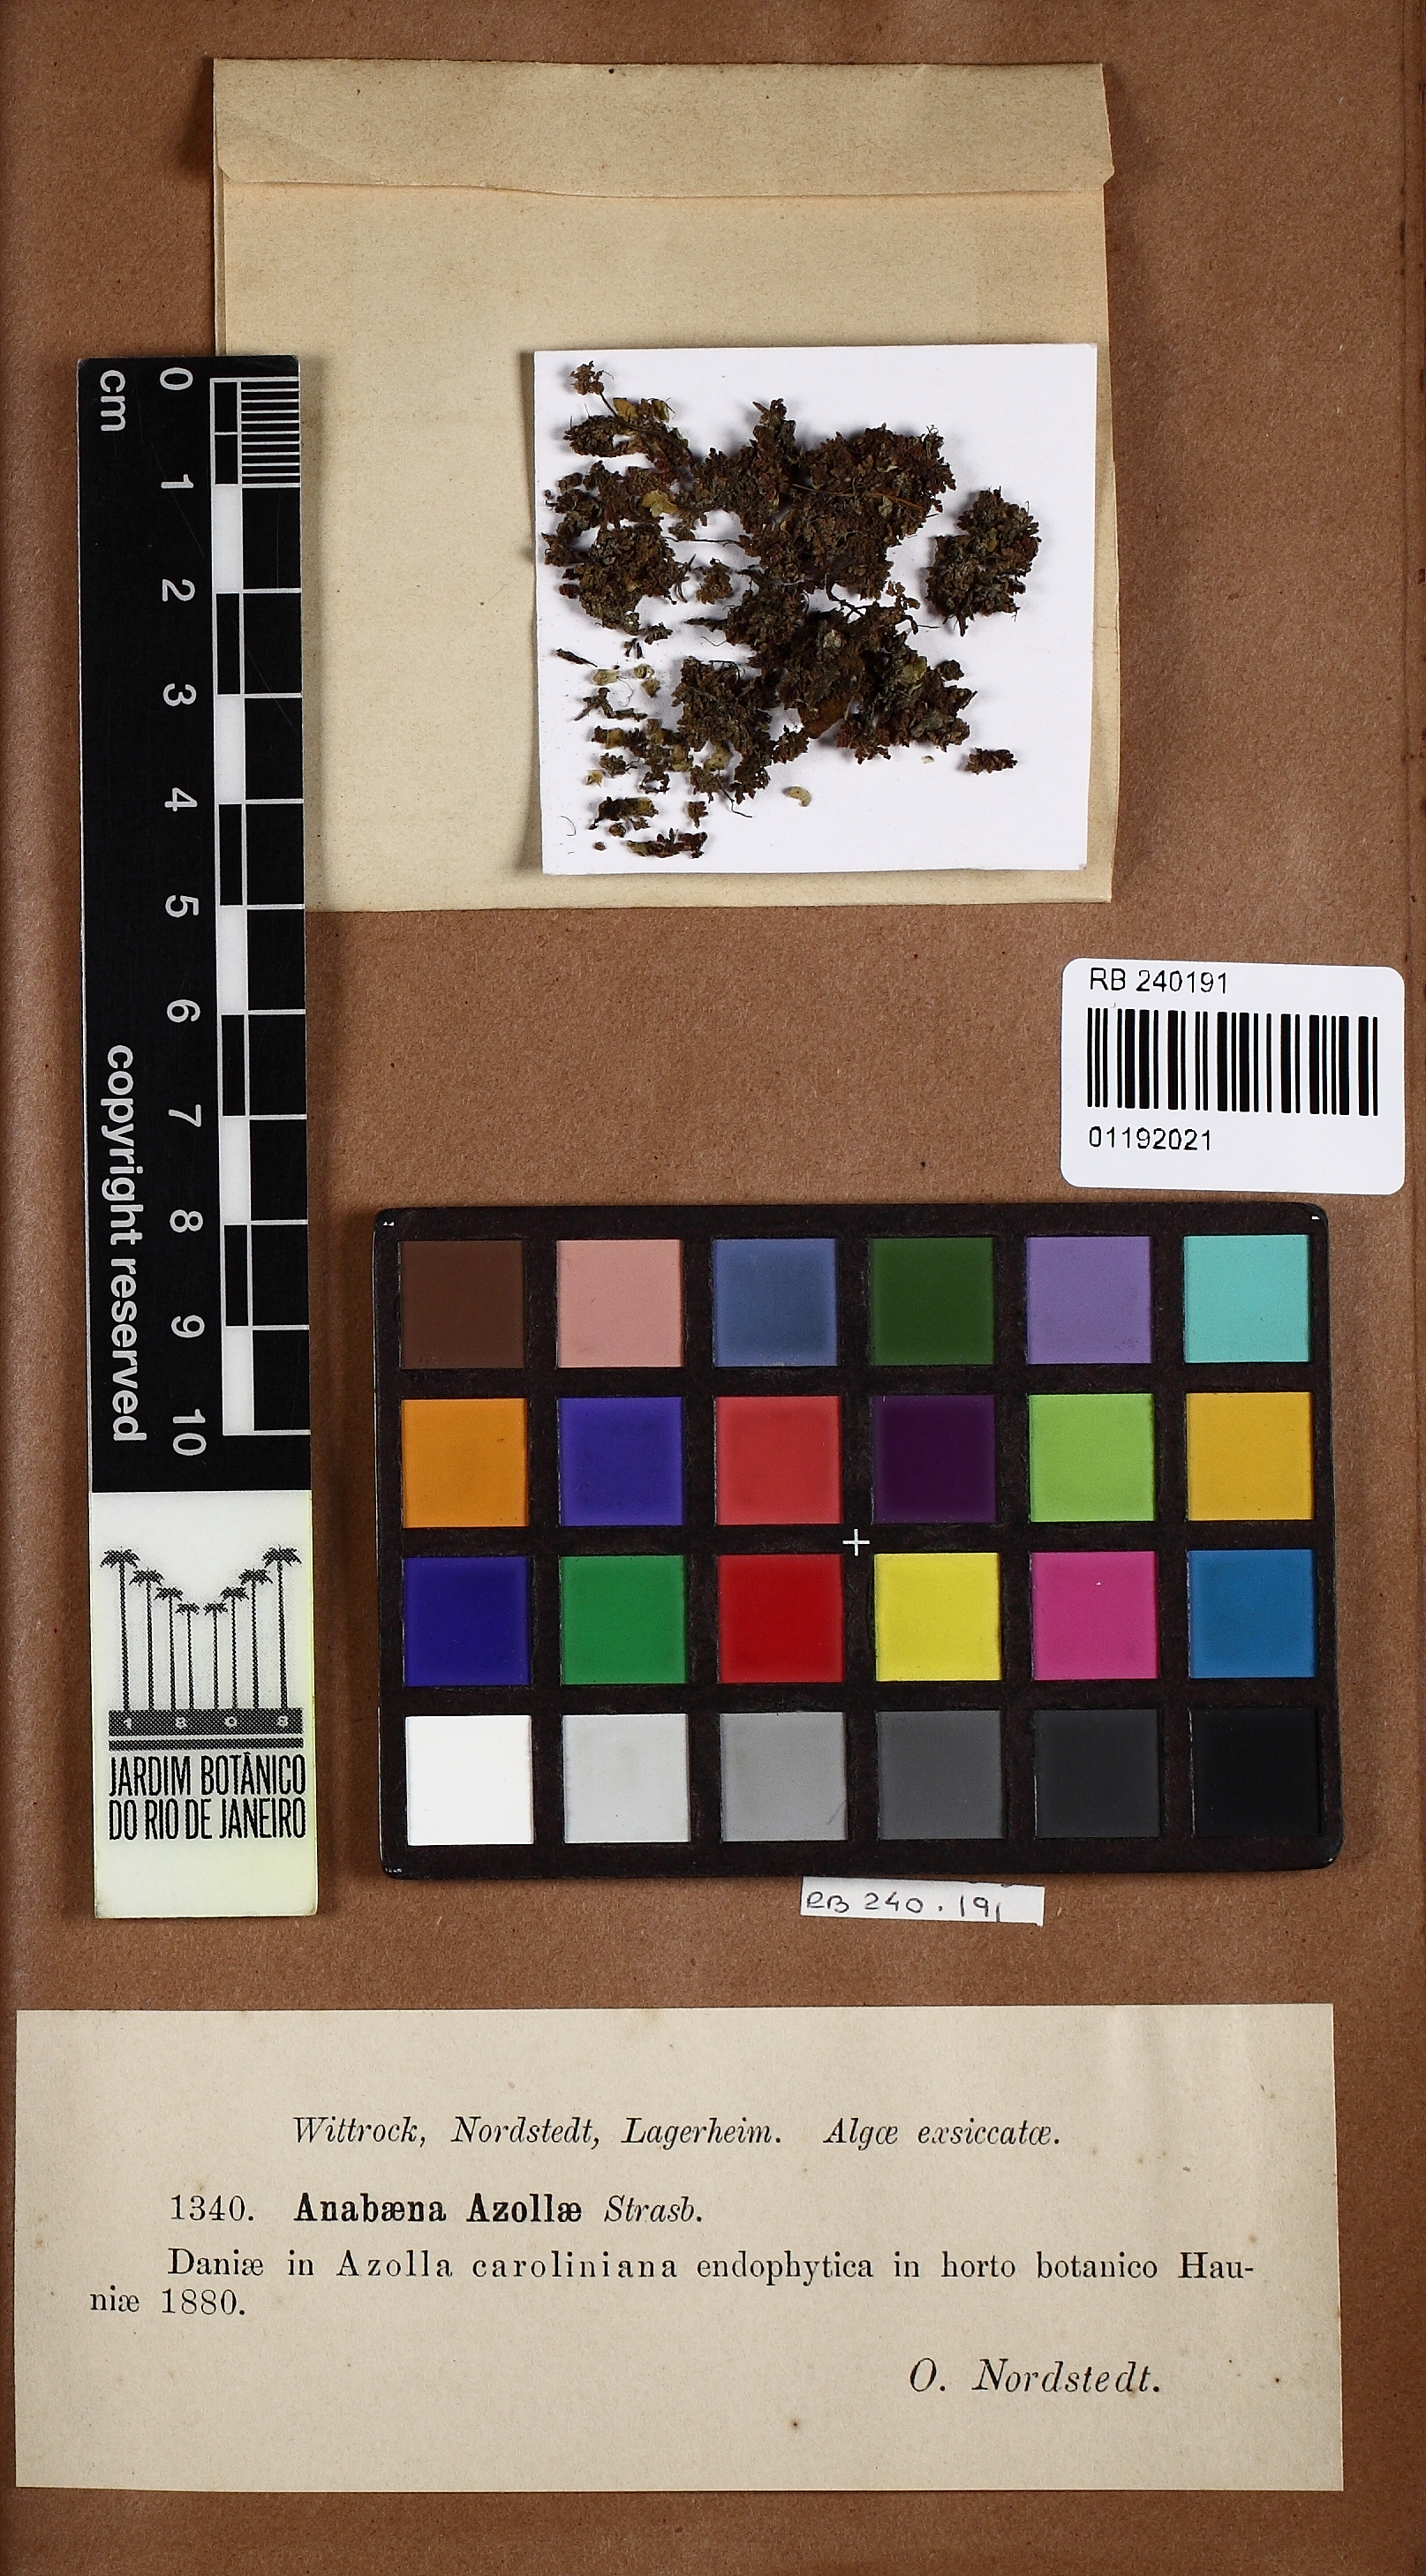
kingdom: Bacteria
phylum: Cyanobacteria
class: Cyanobacteriia
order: Cyanobacteriales
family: Nostocaceae
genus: Trichormus
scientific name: Trichormus azollae
